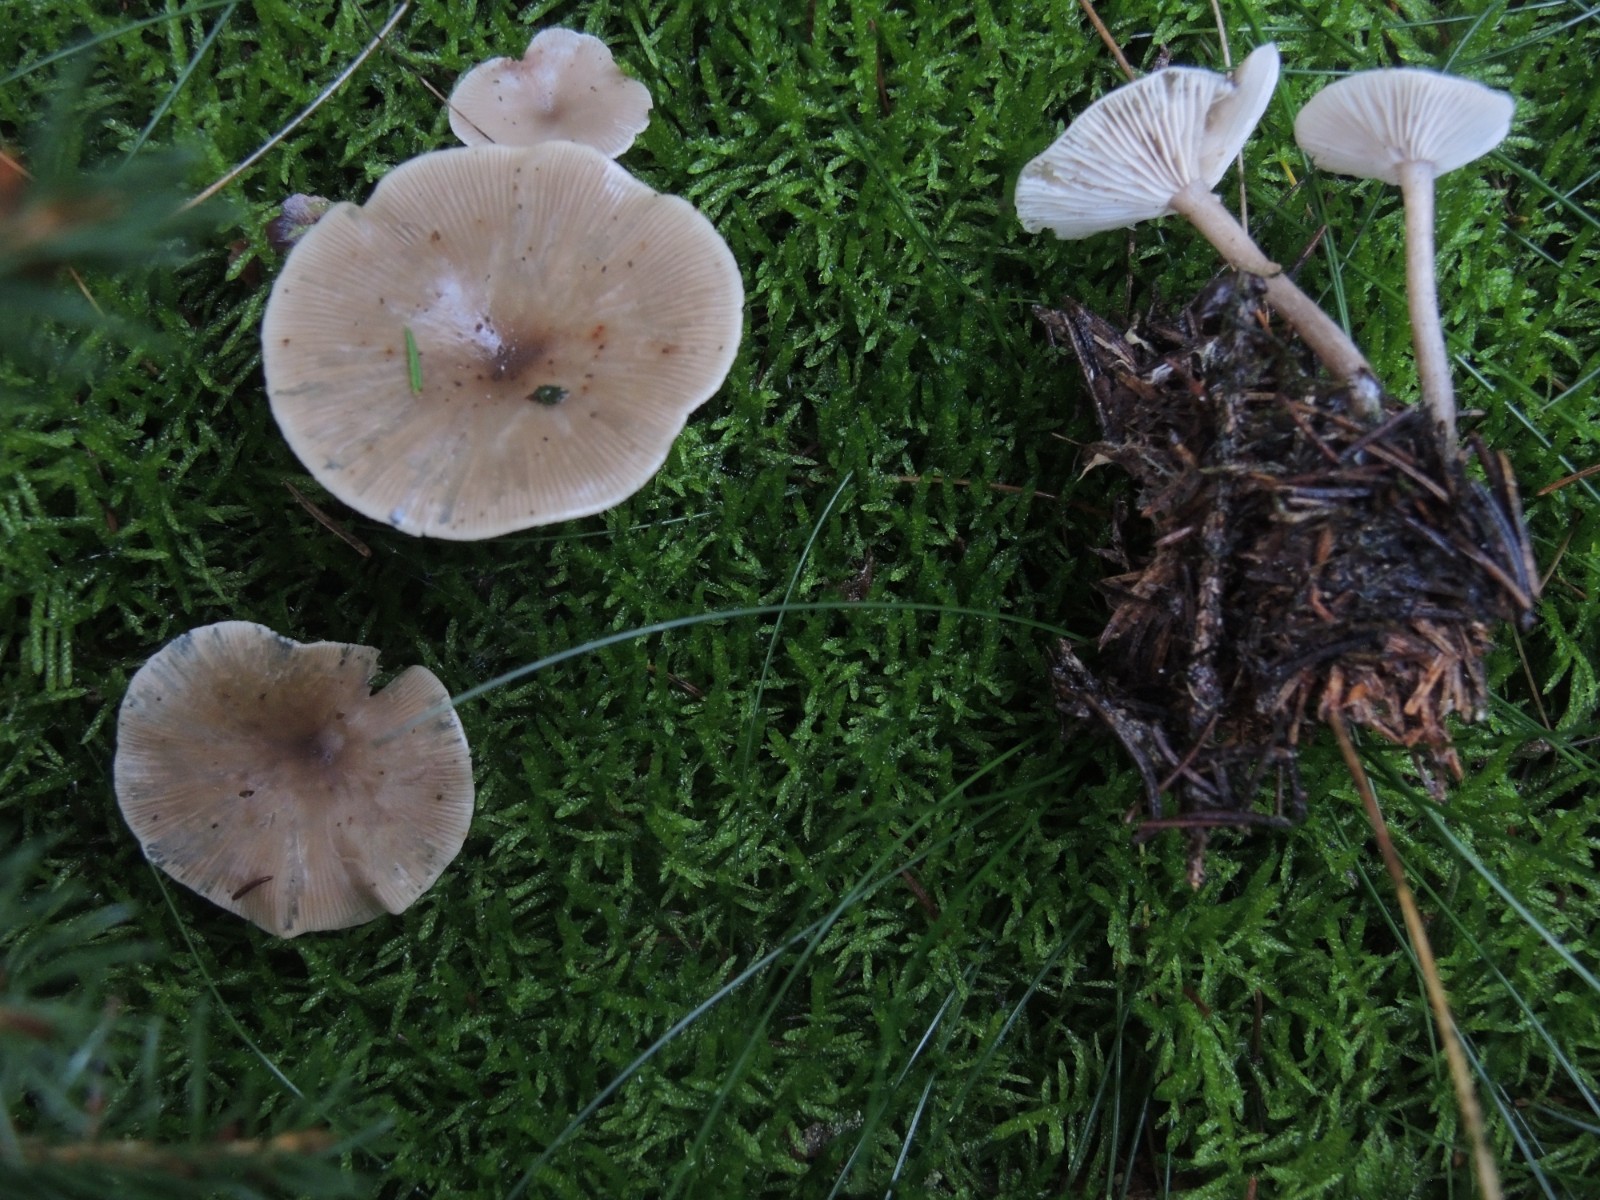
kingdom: Fungi
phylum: Basidiomycota
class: Agaricomycetes
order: Agaricales
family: Tricholomataceae
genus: Clitocybe
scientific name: Clitocybe
